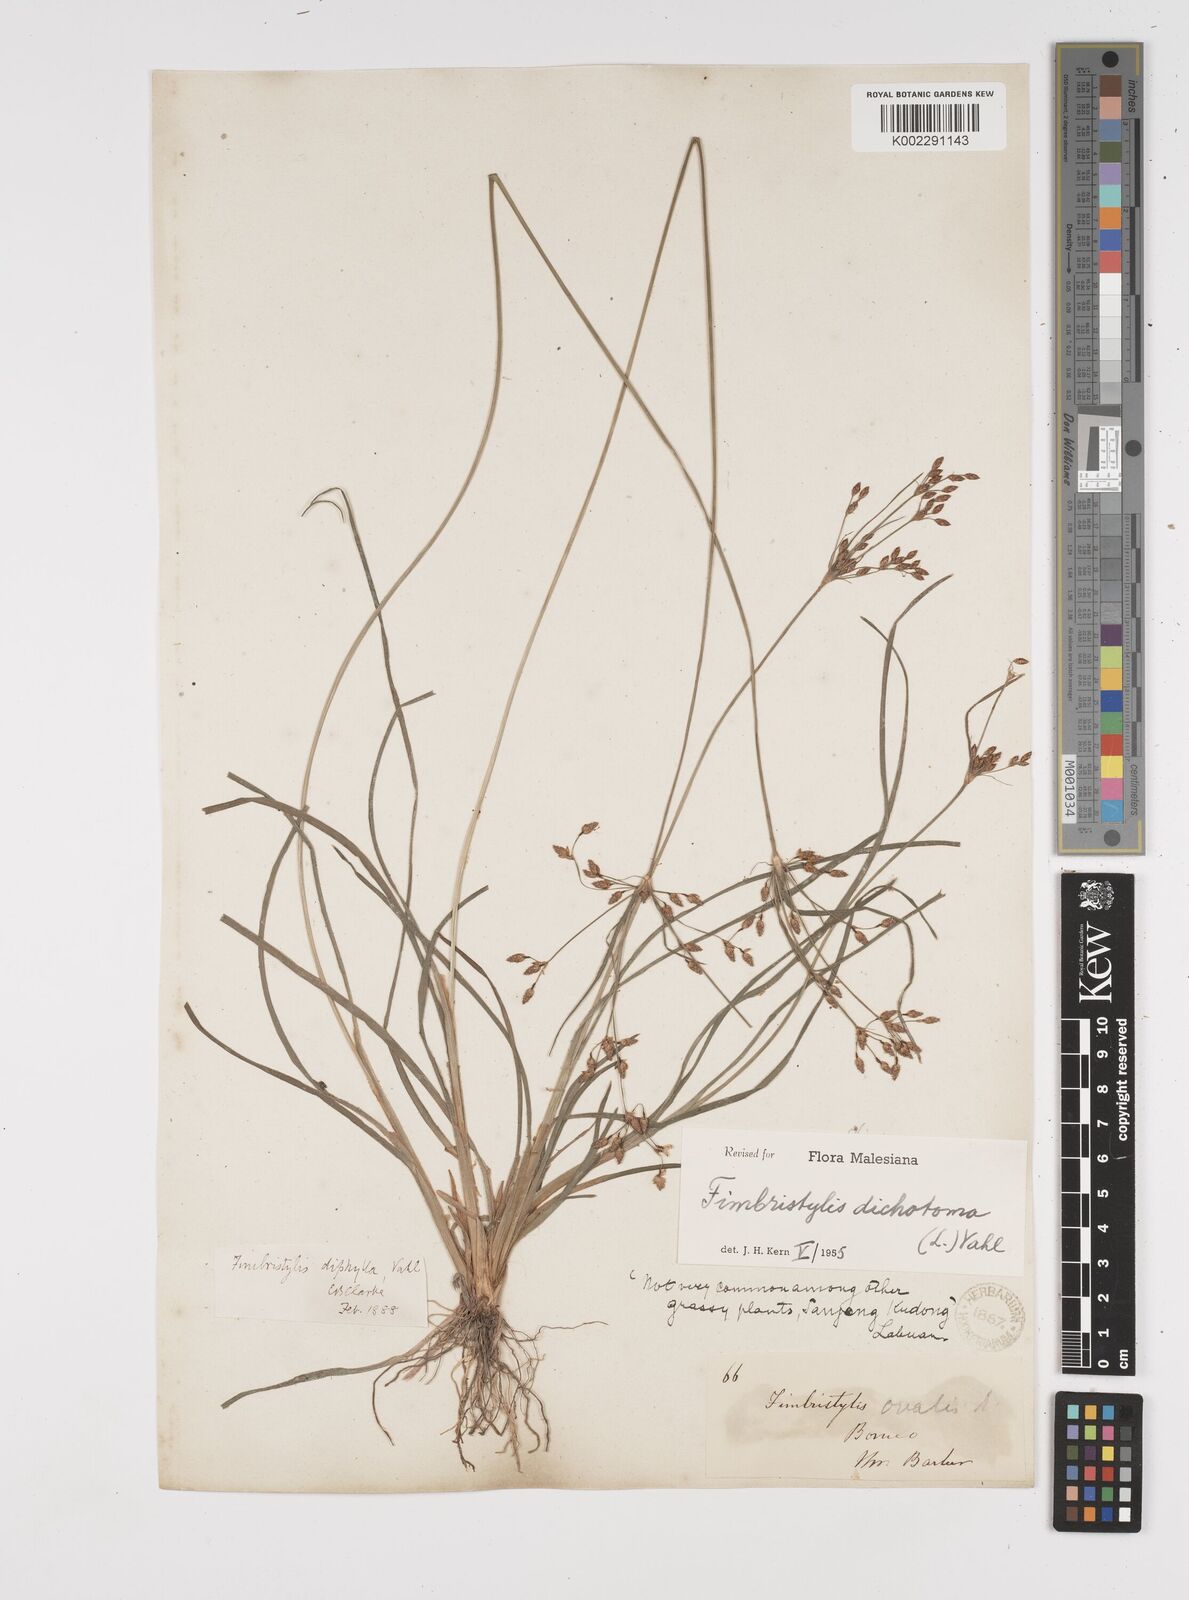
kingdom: Plantae
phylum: Tracheophyta
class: Liliopsida
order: Poales
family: Cyperaceae
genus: Fimbristylis
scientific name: Fimbristylis dichotoma
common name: Forked fimbry
